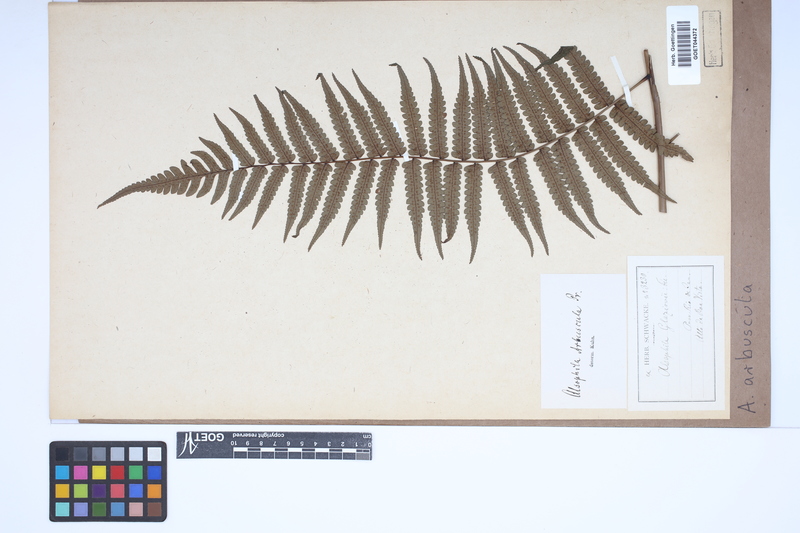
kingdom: Plantae
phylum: Tracheophyta
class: Polypodiopsida
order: Cyatheales
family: Cyatheaceae
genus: Cyathea
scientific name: Cyathea dichromatolepis
